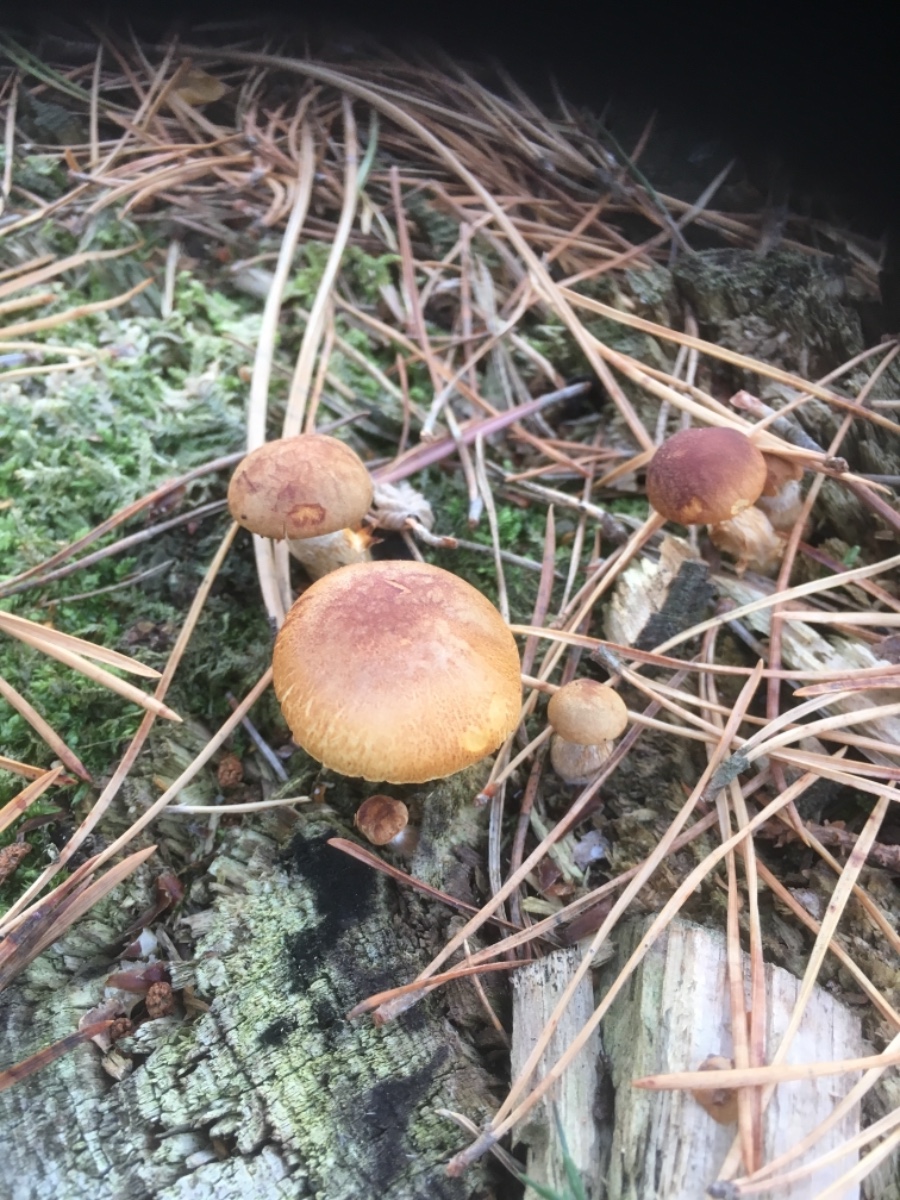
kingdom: Fungi
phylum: Basidiomycota
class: Agaricomycetes
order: Agaricales
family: Hymenogastraceae
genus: Gymnopilus
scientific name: Gymnopilus penetrans
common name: plettet flammehat
